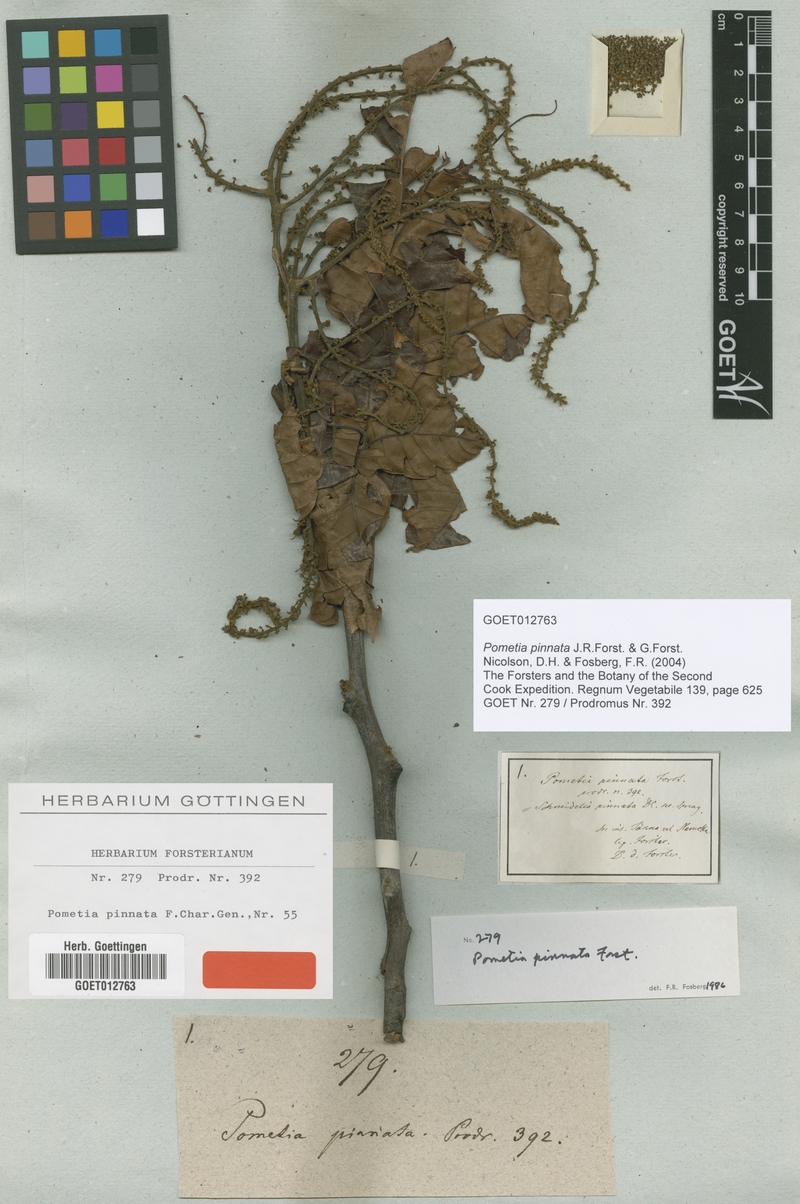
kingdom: Plantae
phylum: Tracheophyta
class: Magnoliopsida
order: Sapindales
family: Sapindaceae
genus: Pometia
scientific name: Pometia pinnata
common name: Oceanic lychee
